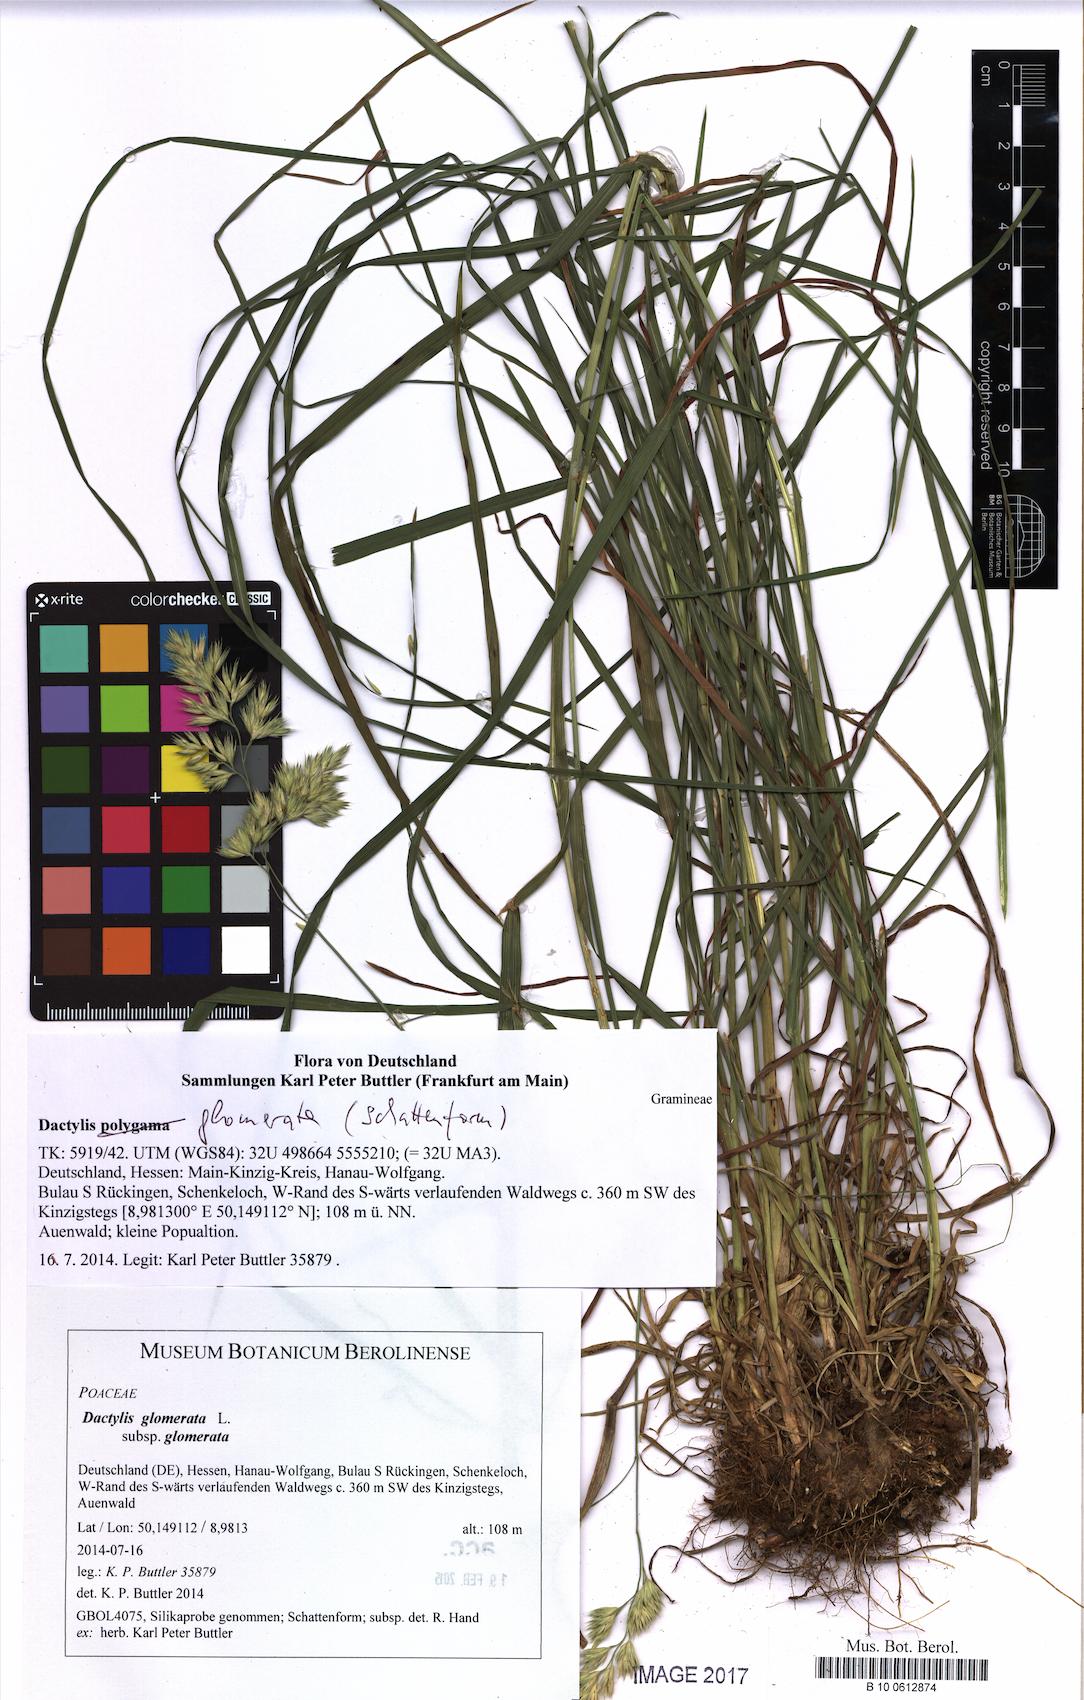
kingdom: Plantae
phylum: Tracheophyta
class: Liliopsida
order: Poales
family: Poaceae
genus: Dactylis
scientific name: Dactylis glomerata
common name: Orchardgrass
